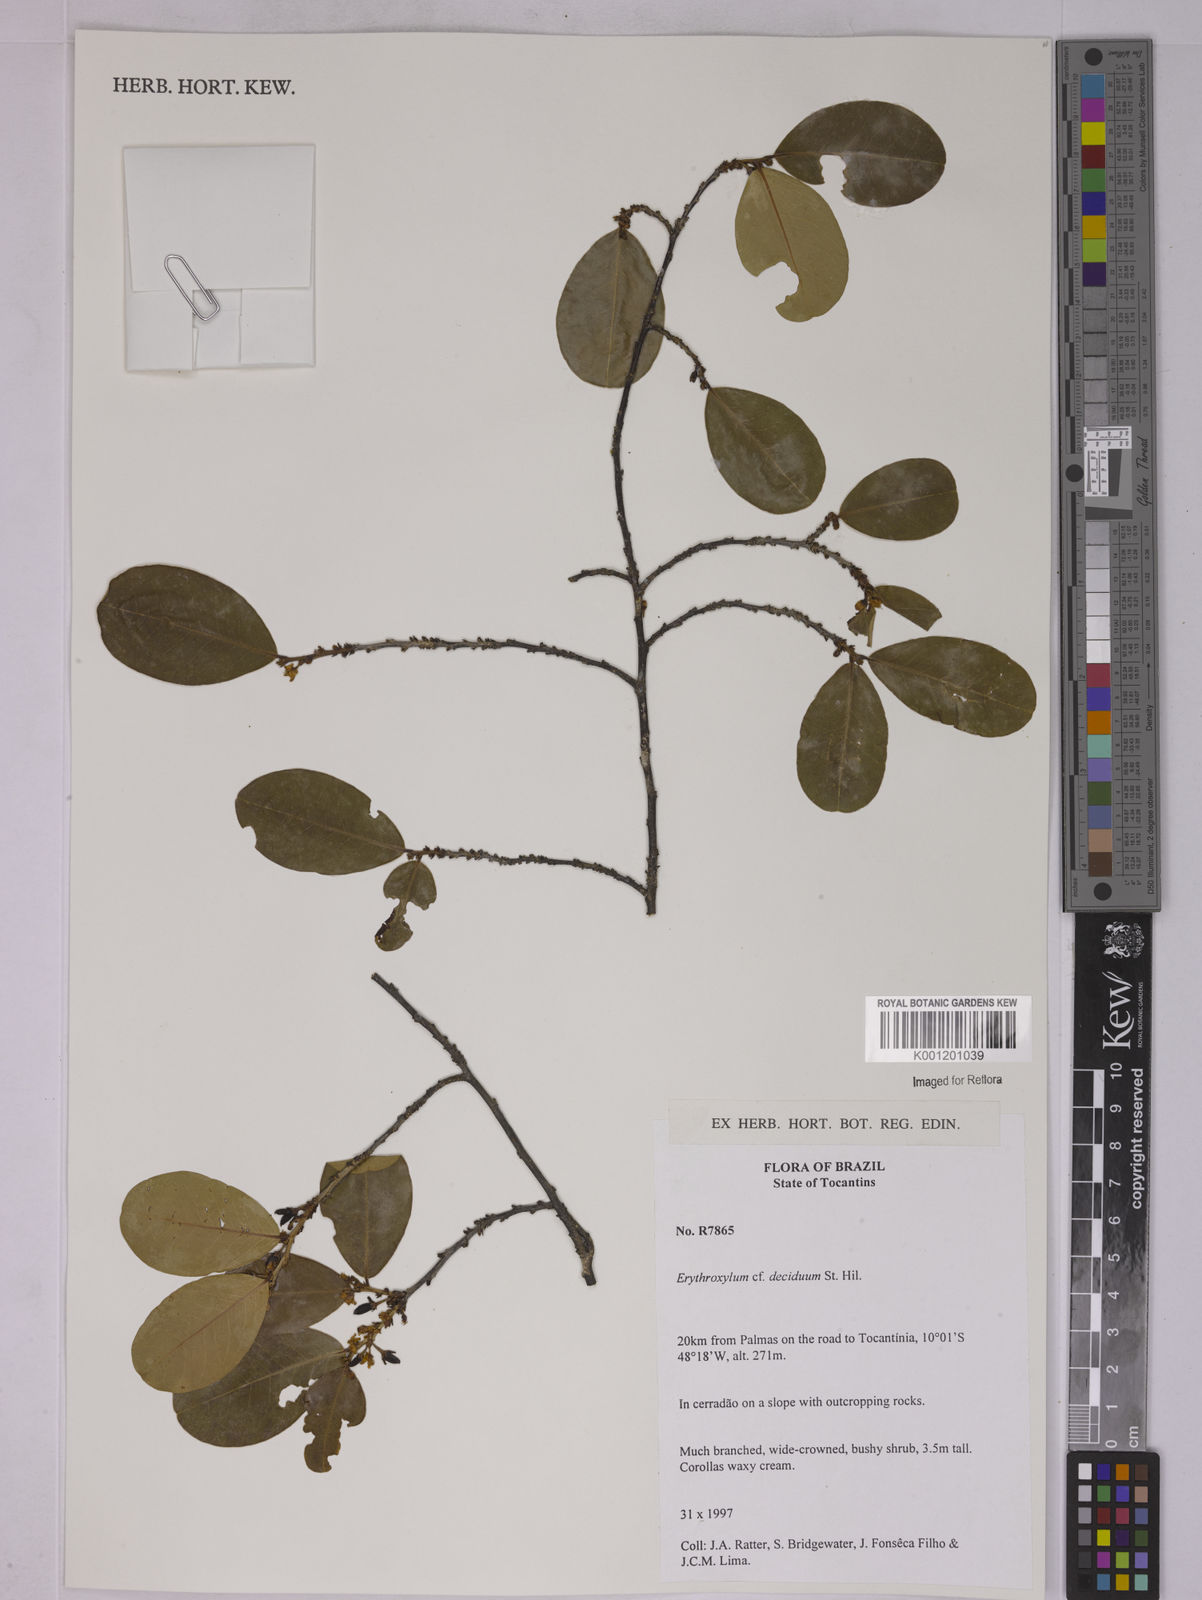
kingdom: Plantae
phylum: Tracheophyta
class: Magnoliopsida
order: Malpighiales
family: Erythroxylaceae
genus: Erythroxylum
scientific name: Erythroxylum deciduum
